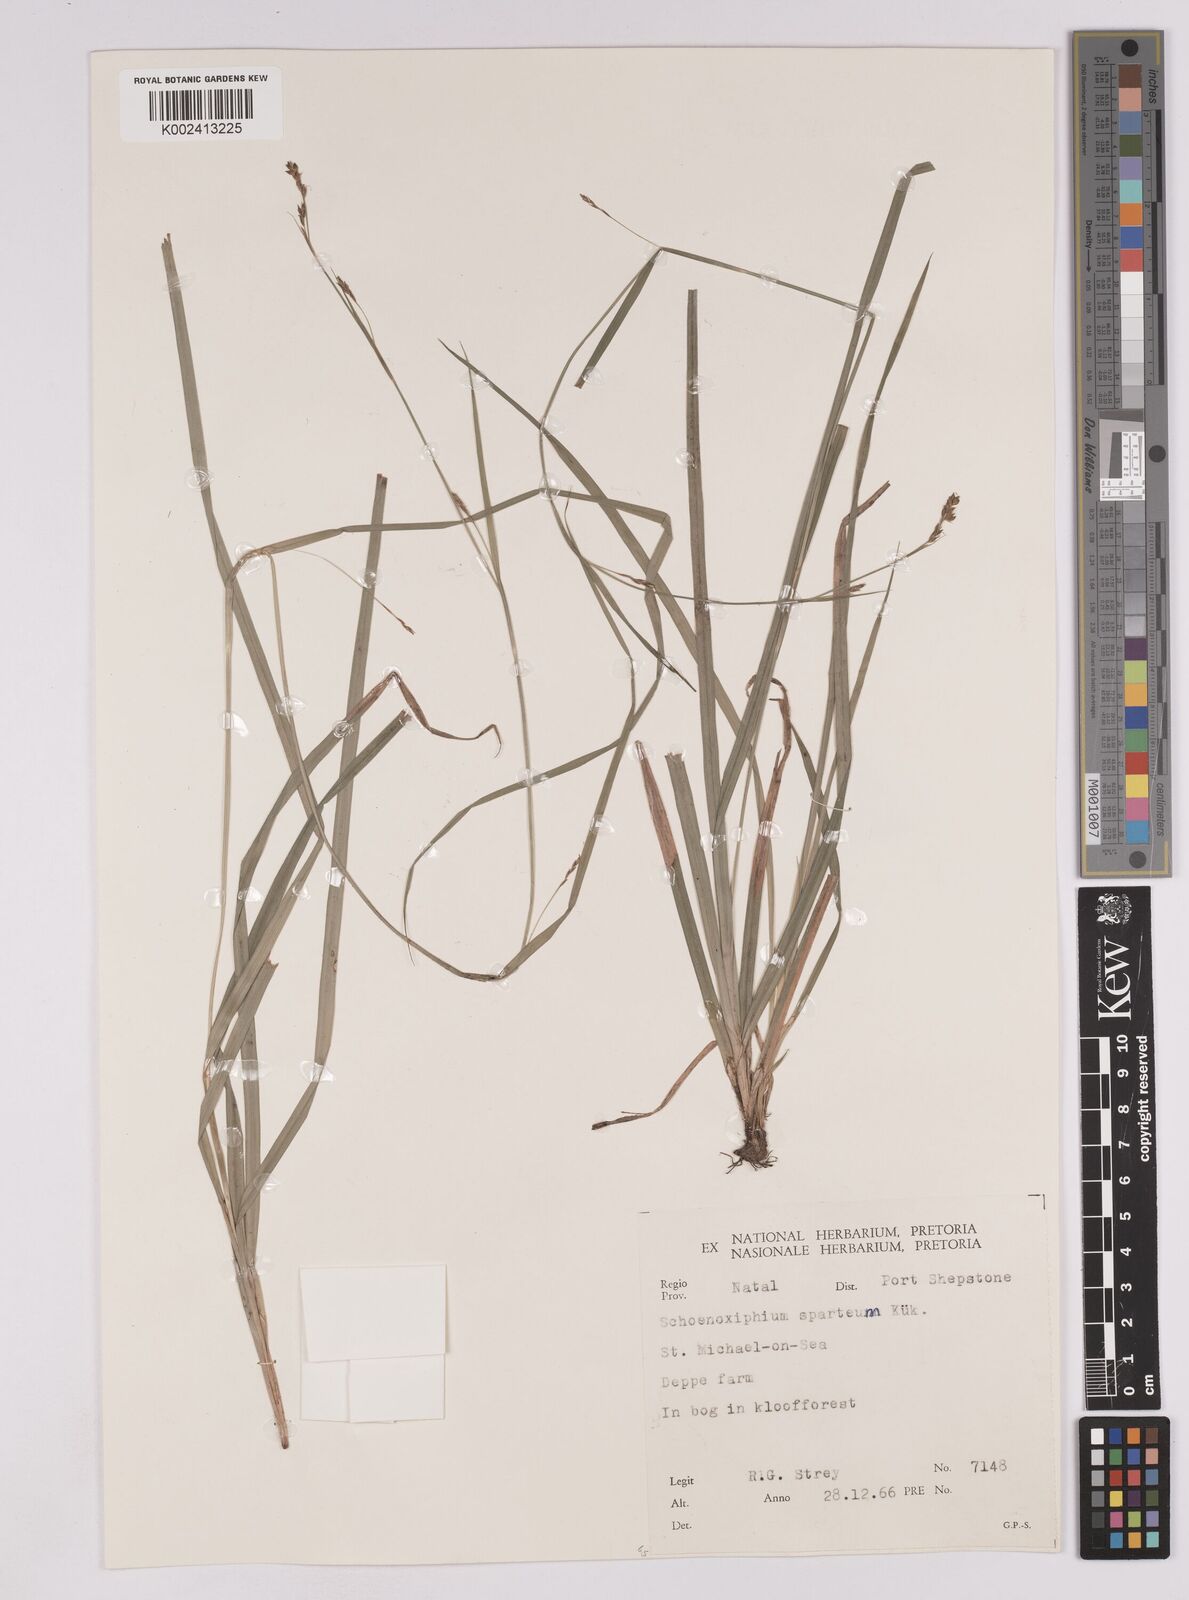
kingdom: Plantae
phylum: Tracheophyta
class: Liliopsida
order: Poales
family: Cyperaceae
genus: Carex
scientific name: Carex schimperiana
